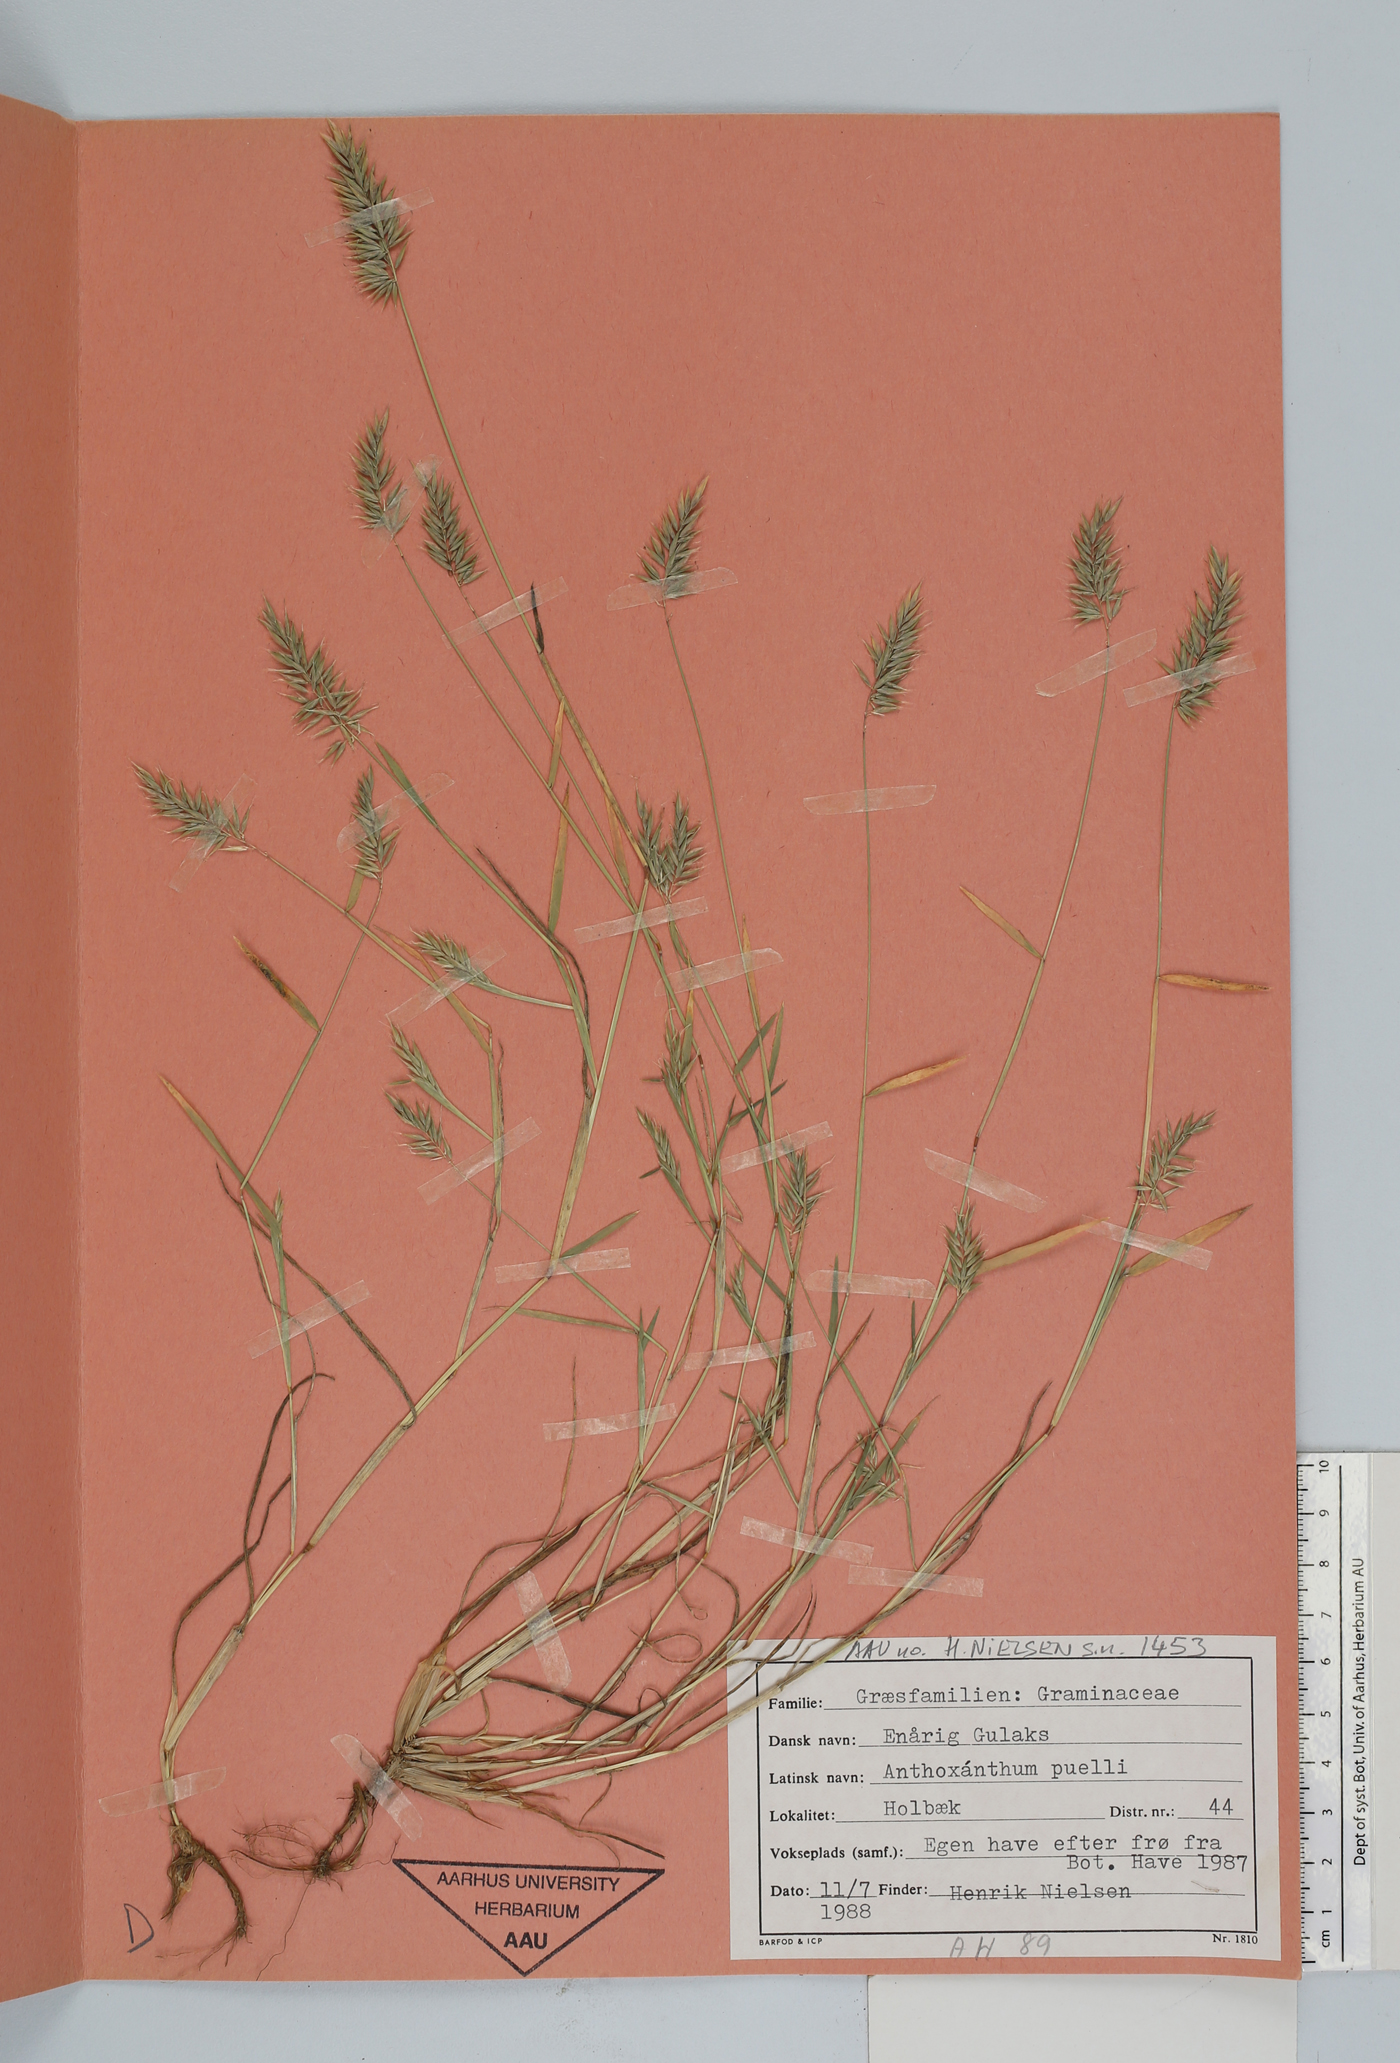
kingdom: Plantae
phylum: Tracheophyta
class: Liliopsida
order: Poales
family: Poaceae
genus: Anthoxanthum
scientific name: Anthoxanthum aristatum
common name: Annual vernal-grass
